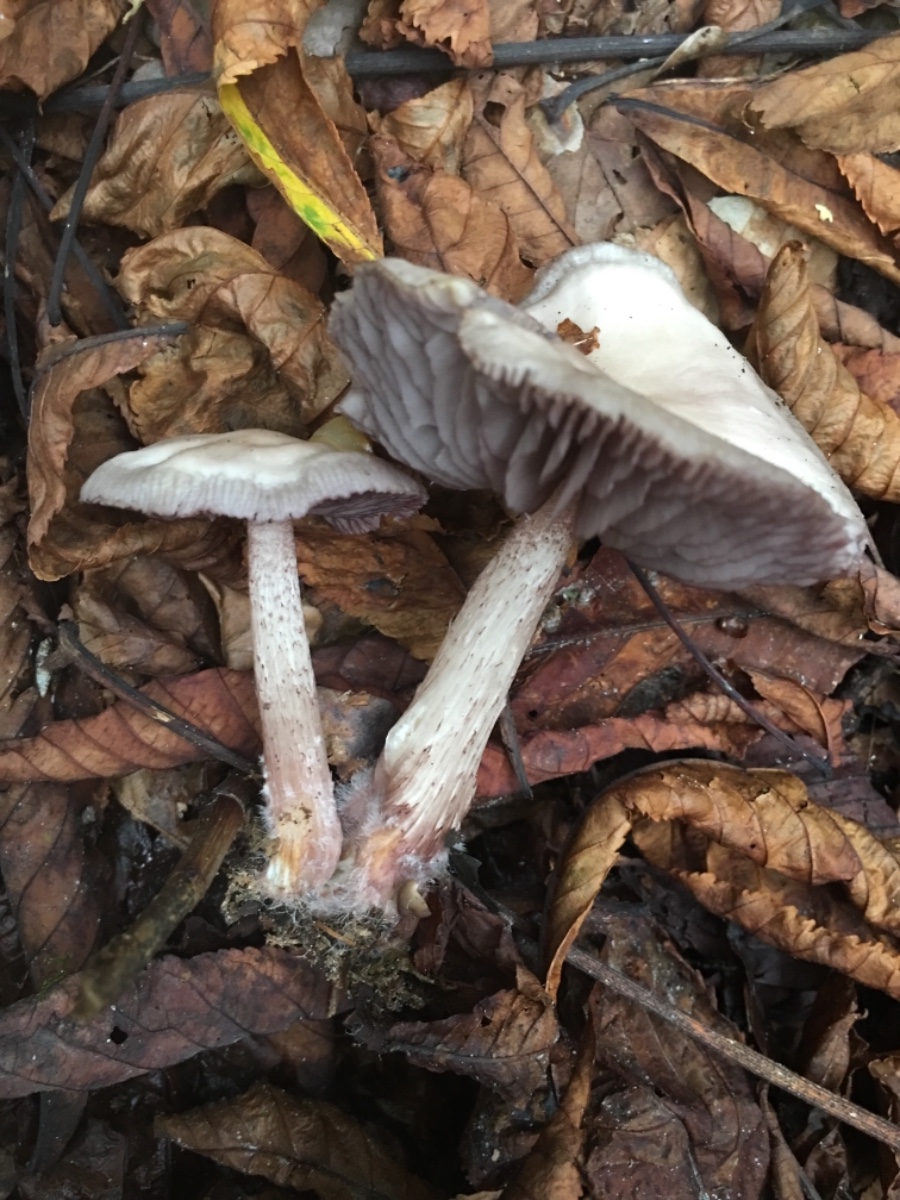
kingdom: Fungi
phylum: Basidiomycota
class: Agaricomycetes
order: Agaricales
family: Mycenaceae
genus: Mycena
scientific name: Mycena pelianthina
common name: mørkbladet huesvamp
